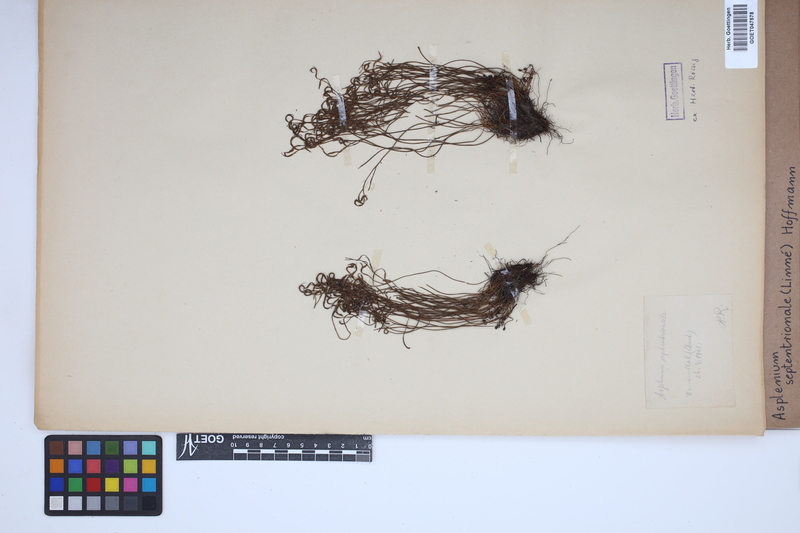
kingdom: Plantae
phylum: Tracheophyta
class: Polypodiopsida
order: Polypodiales
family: Aspleniaceae
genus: Asplenium
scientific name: Asplenium septentrionale
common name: Forked spleenwort
